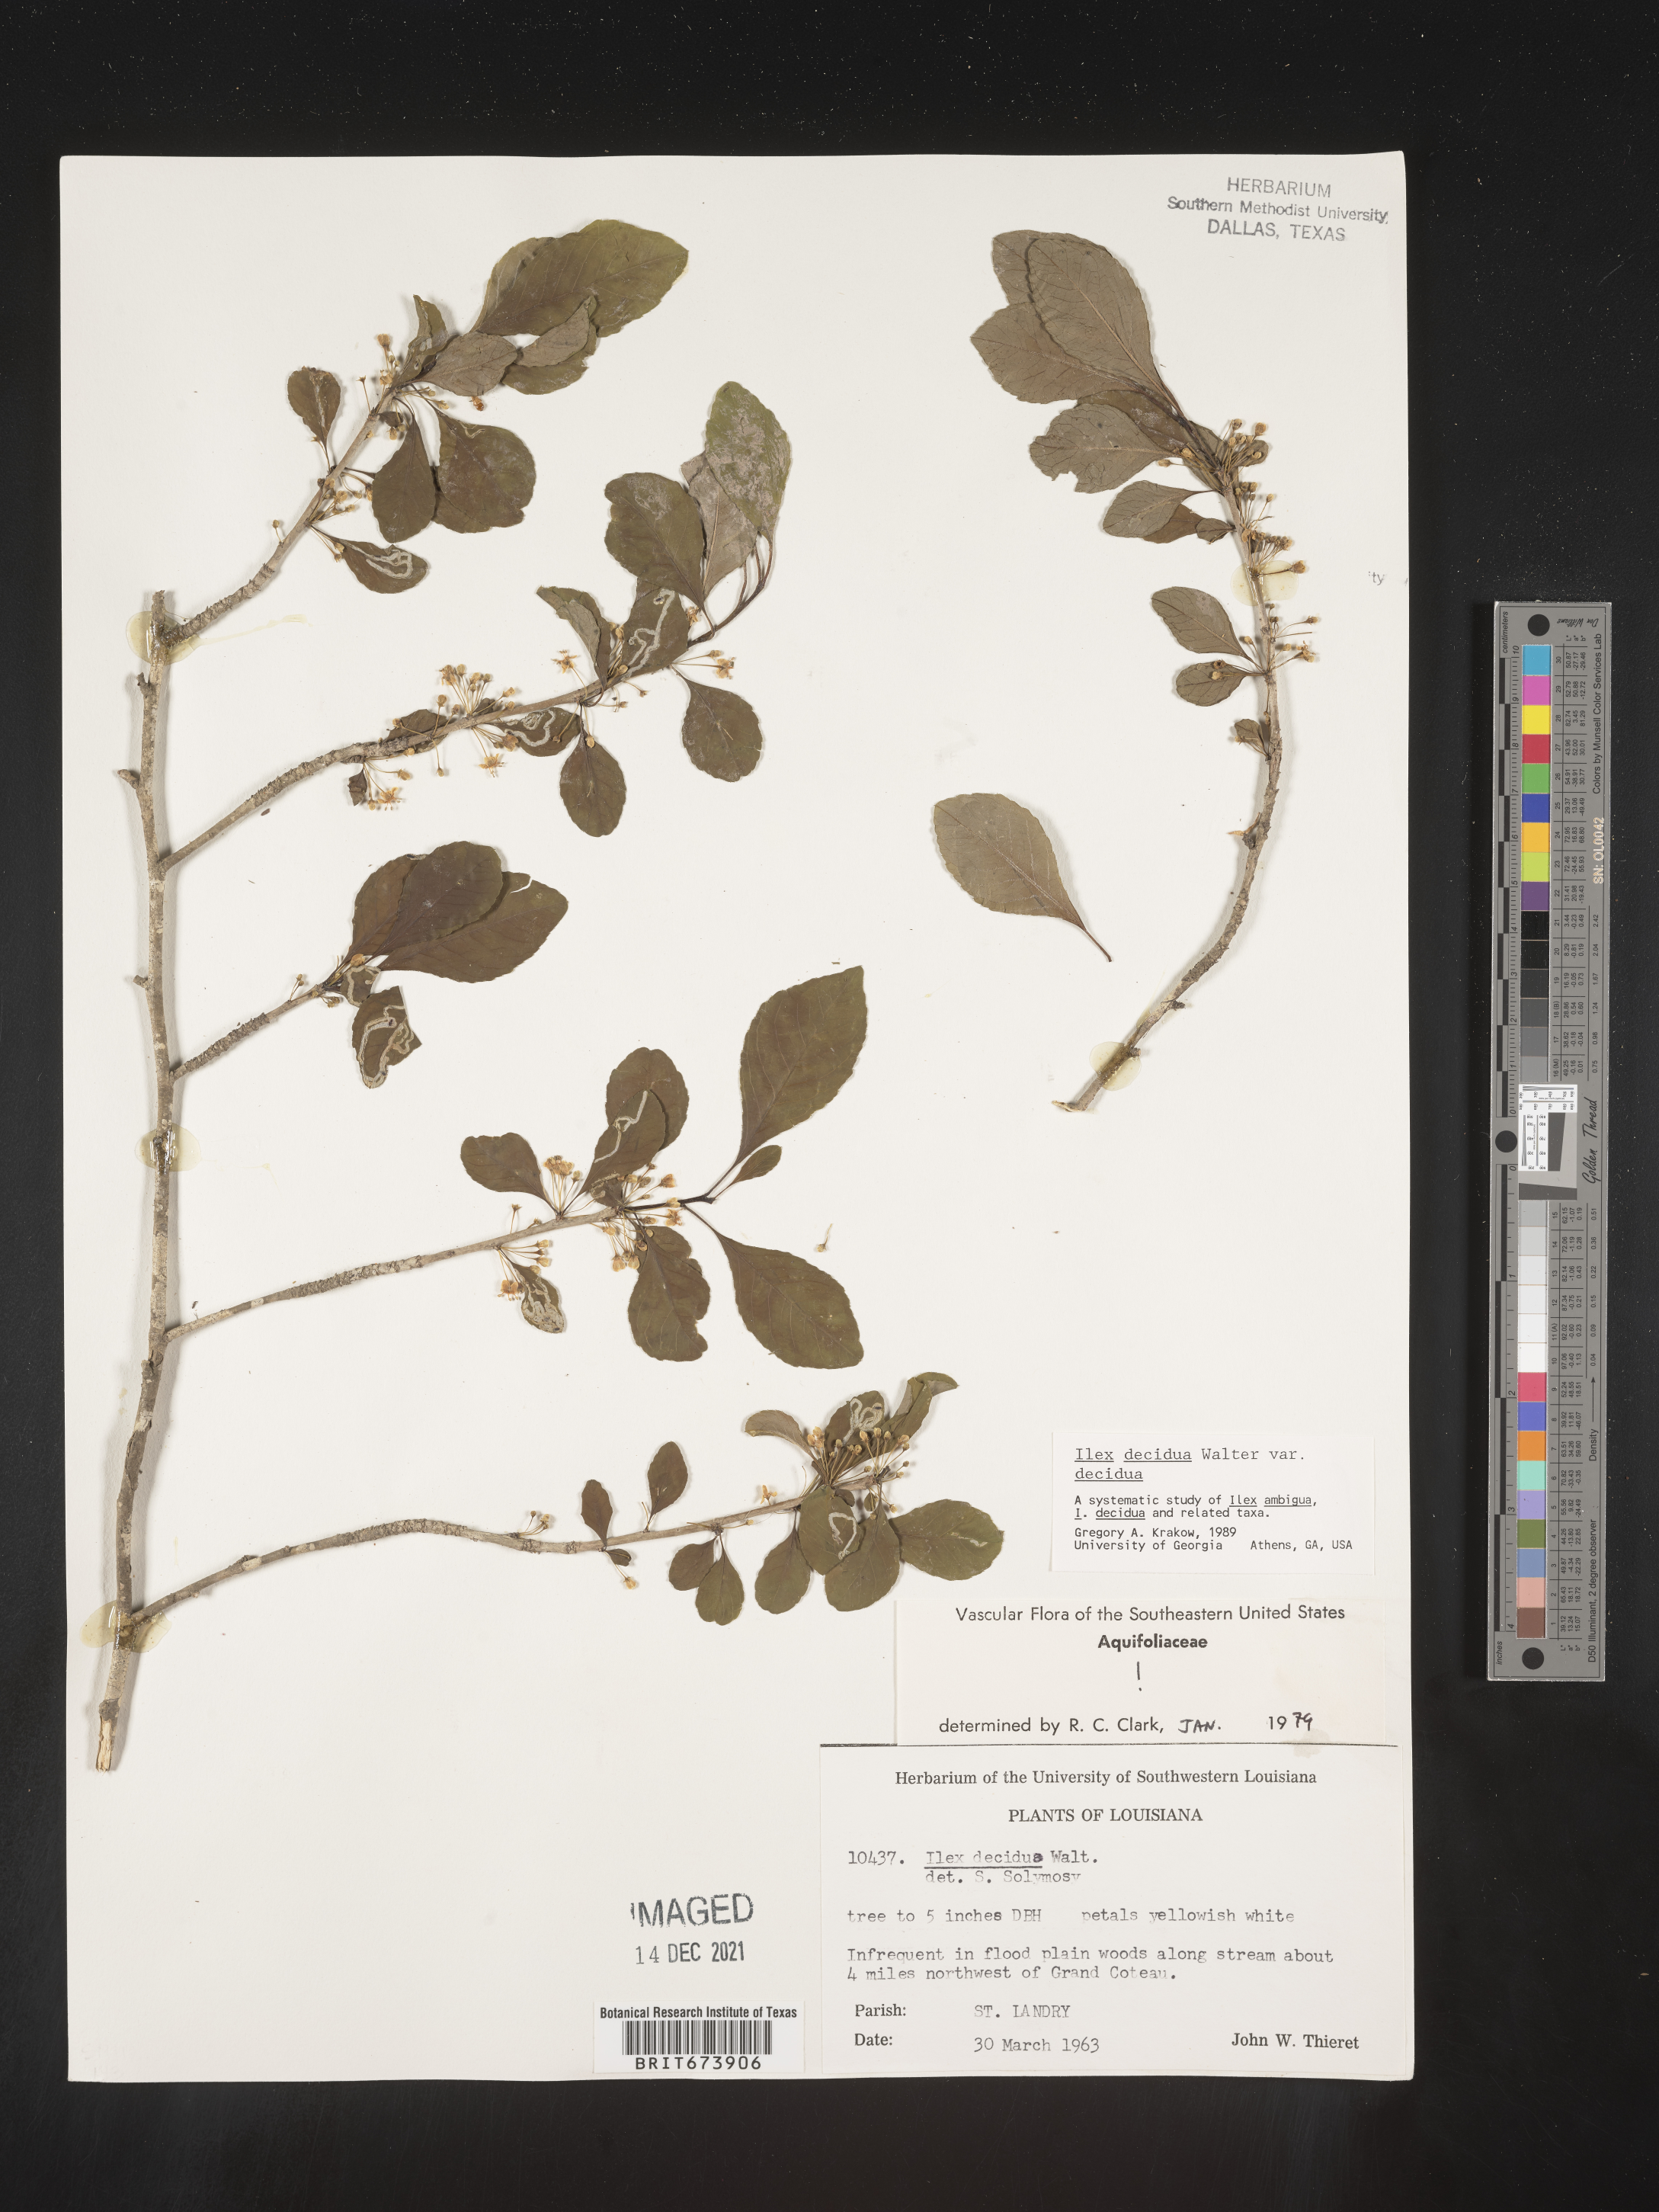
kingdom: Plantae
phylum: Tracheophyta
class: Magnoliopsida
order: Aquifoliales
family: Aquifoliaceae
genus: Ilex
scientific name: Ilex decidua
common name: Possum-haw
